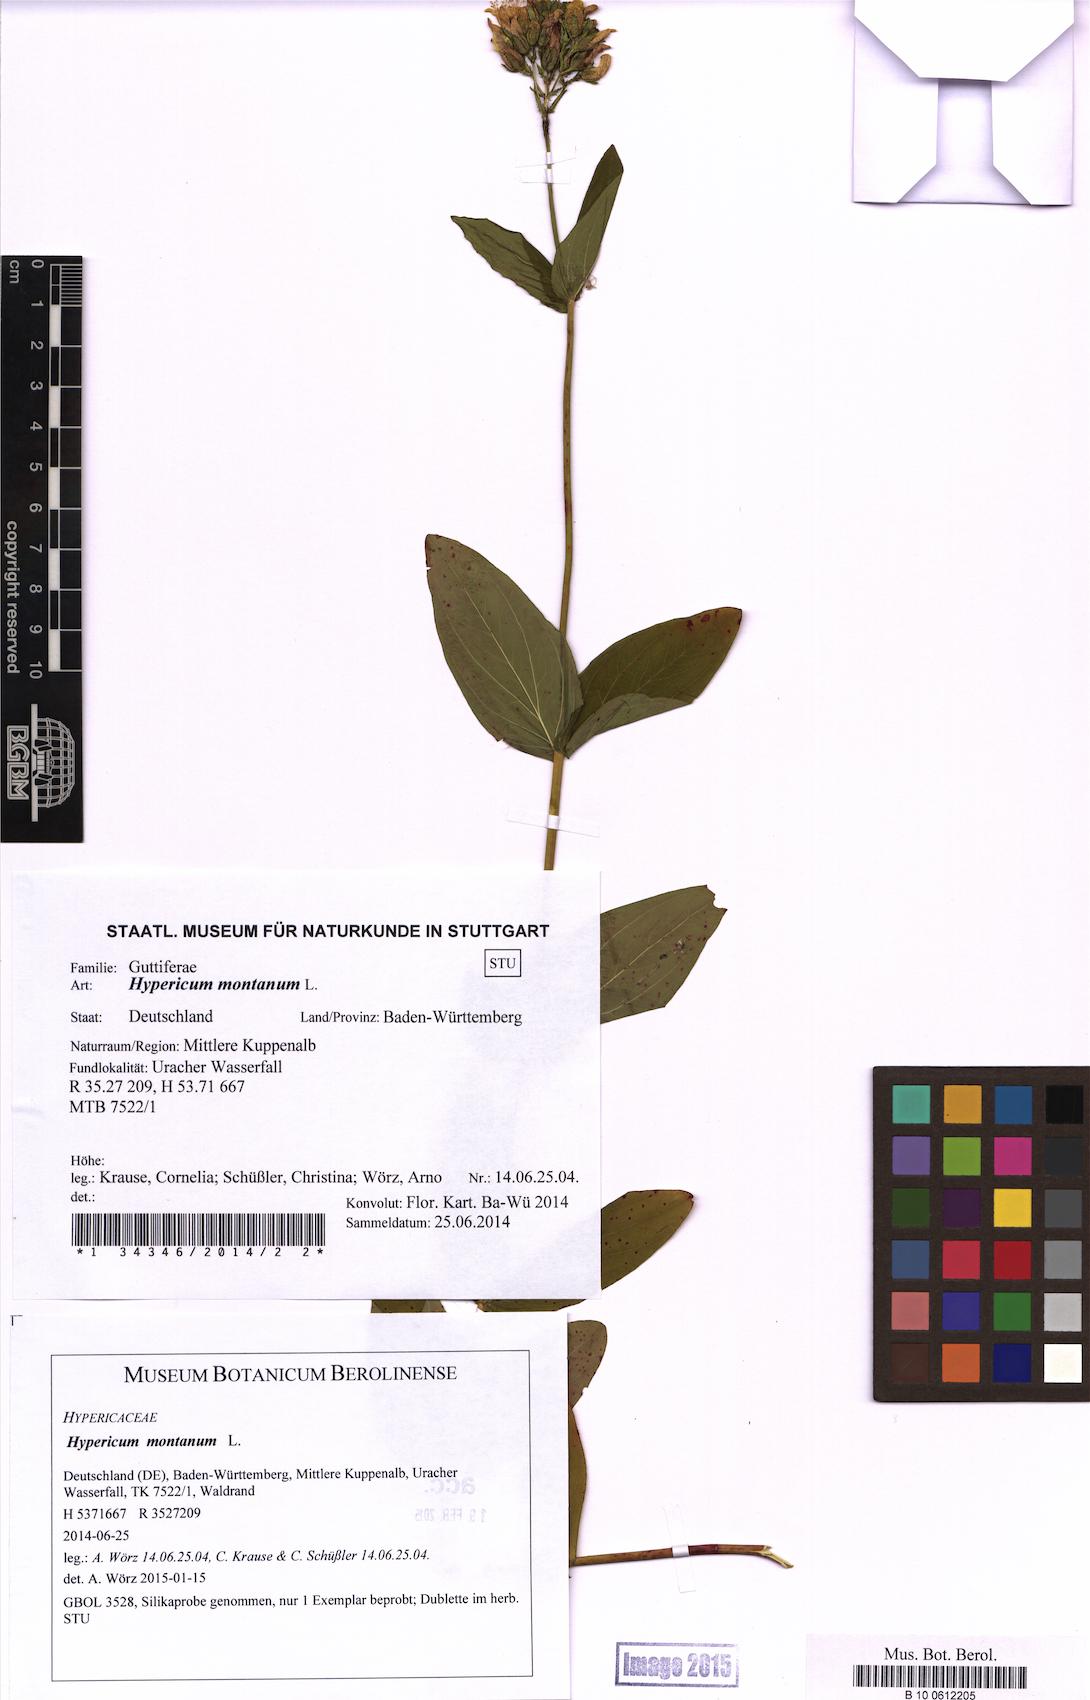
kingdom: Plantae
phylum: Tracheophyta
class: Magnoliopsida
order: Malpighiales
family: Hypericaceae
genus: Hypericum
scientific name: Hypericum montanum
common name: Pale st. john's-wort
